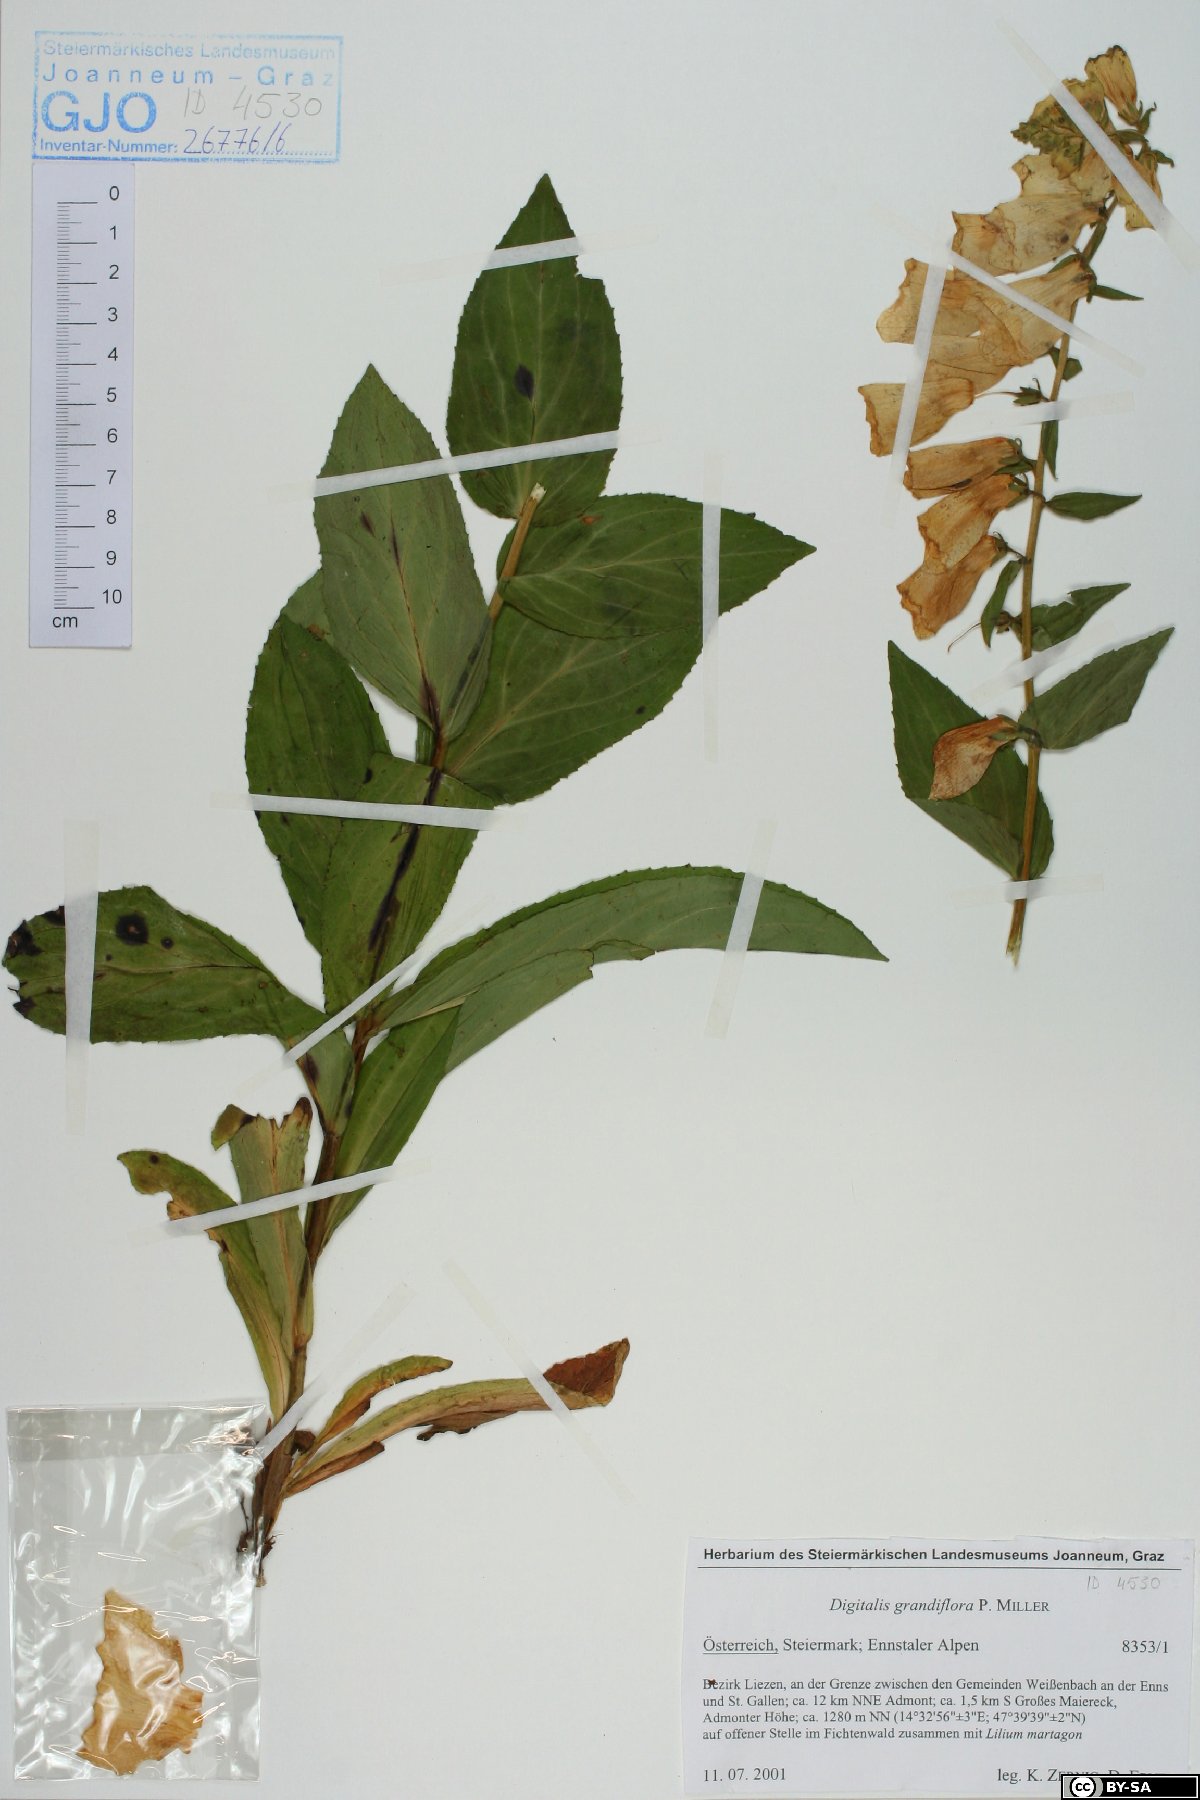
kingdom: Plantae
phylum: Tracheophyta
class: Magnoliopsida
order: Lamiales
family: Plantaginaceae
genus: Digitalis
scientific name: Digitalis grandiflora
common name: Yellow foxglove
